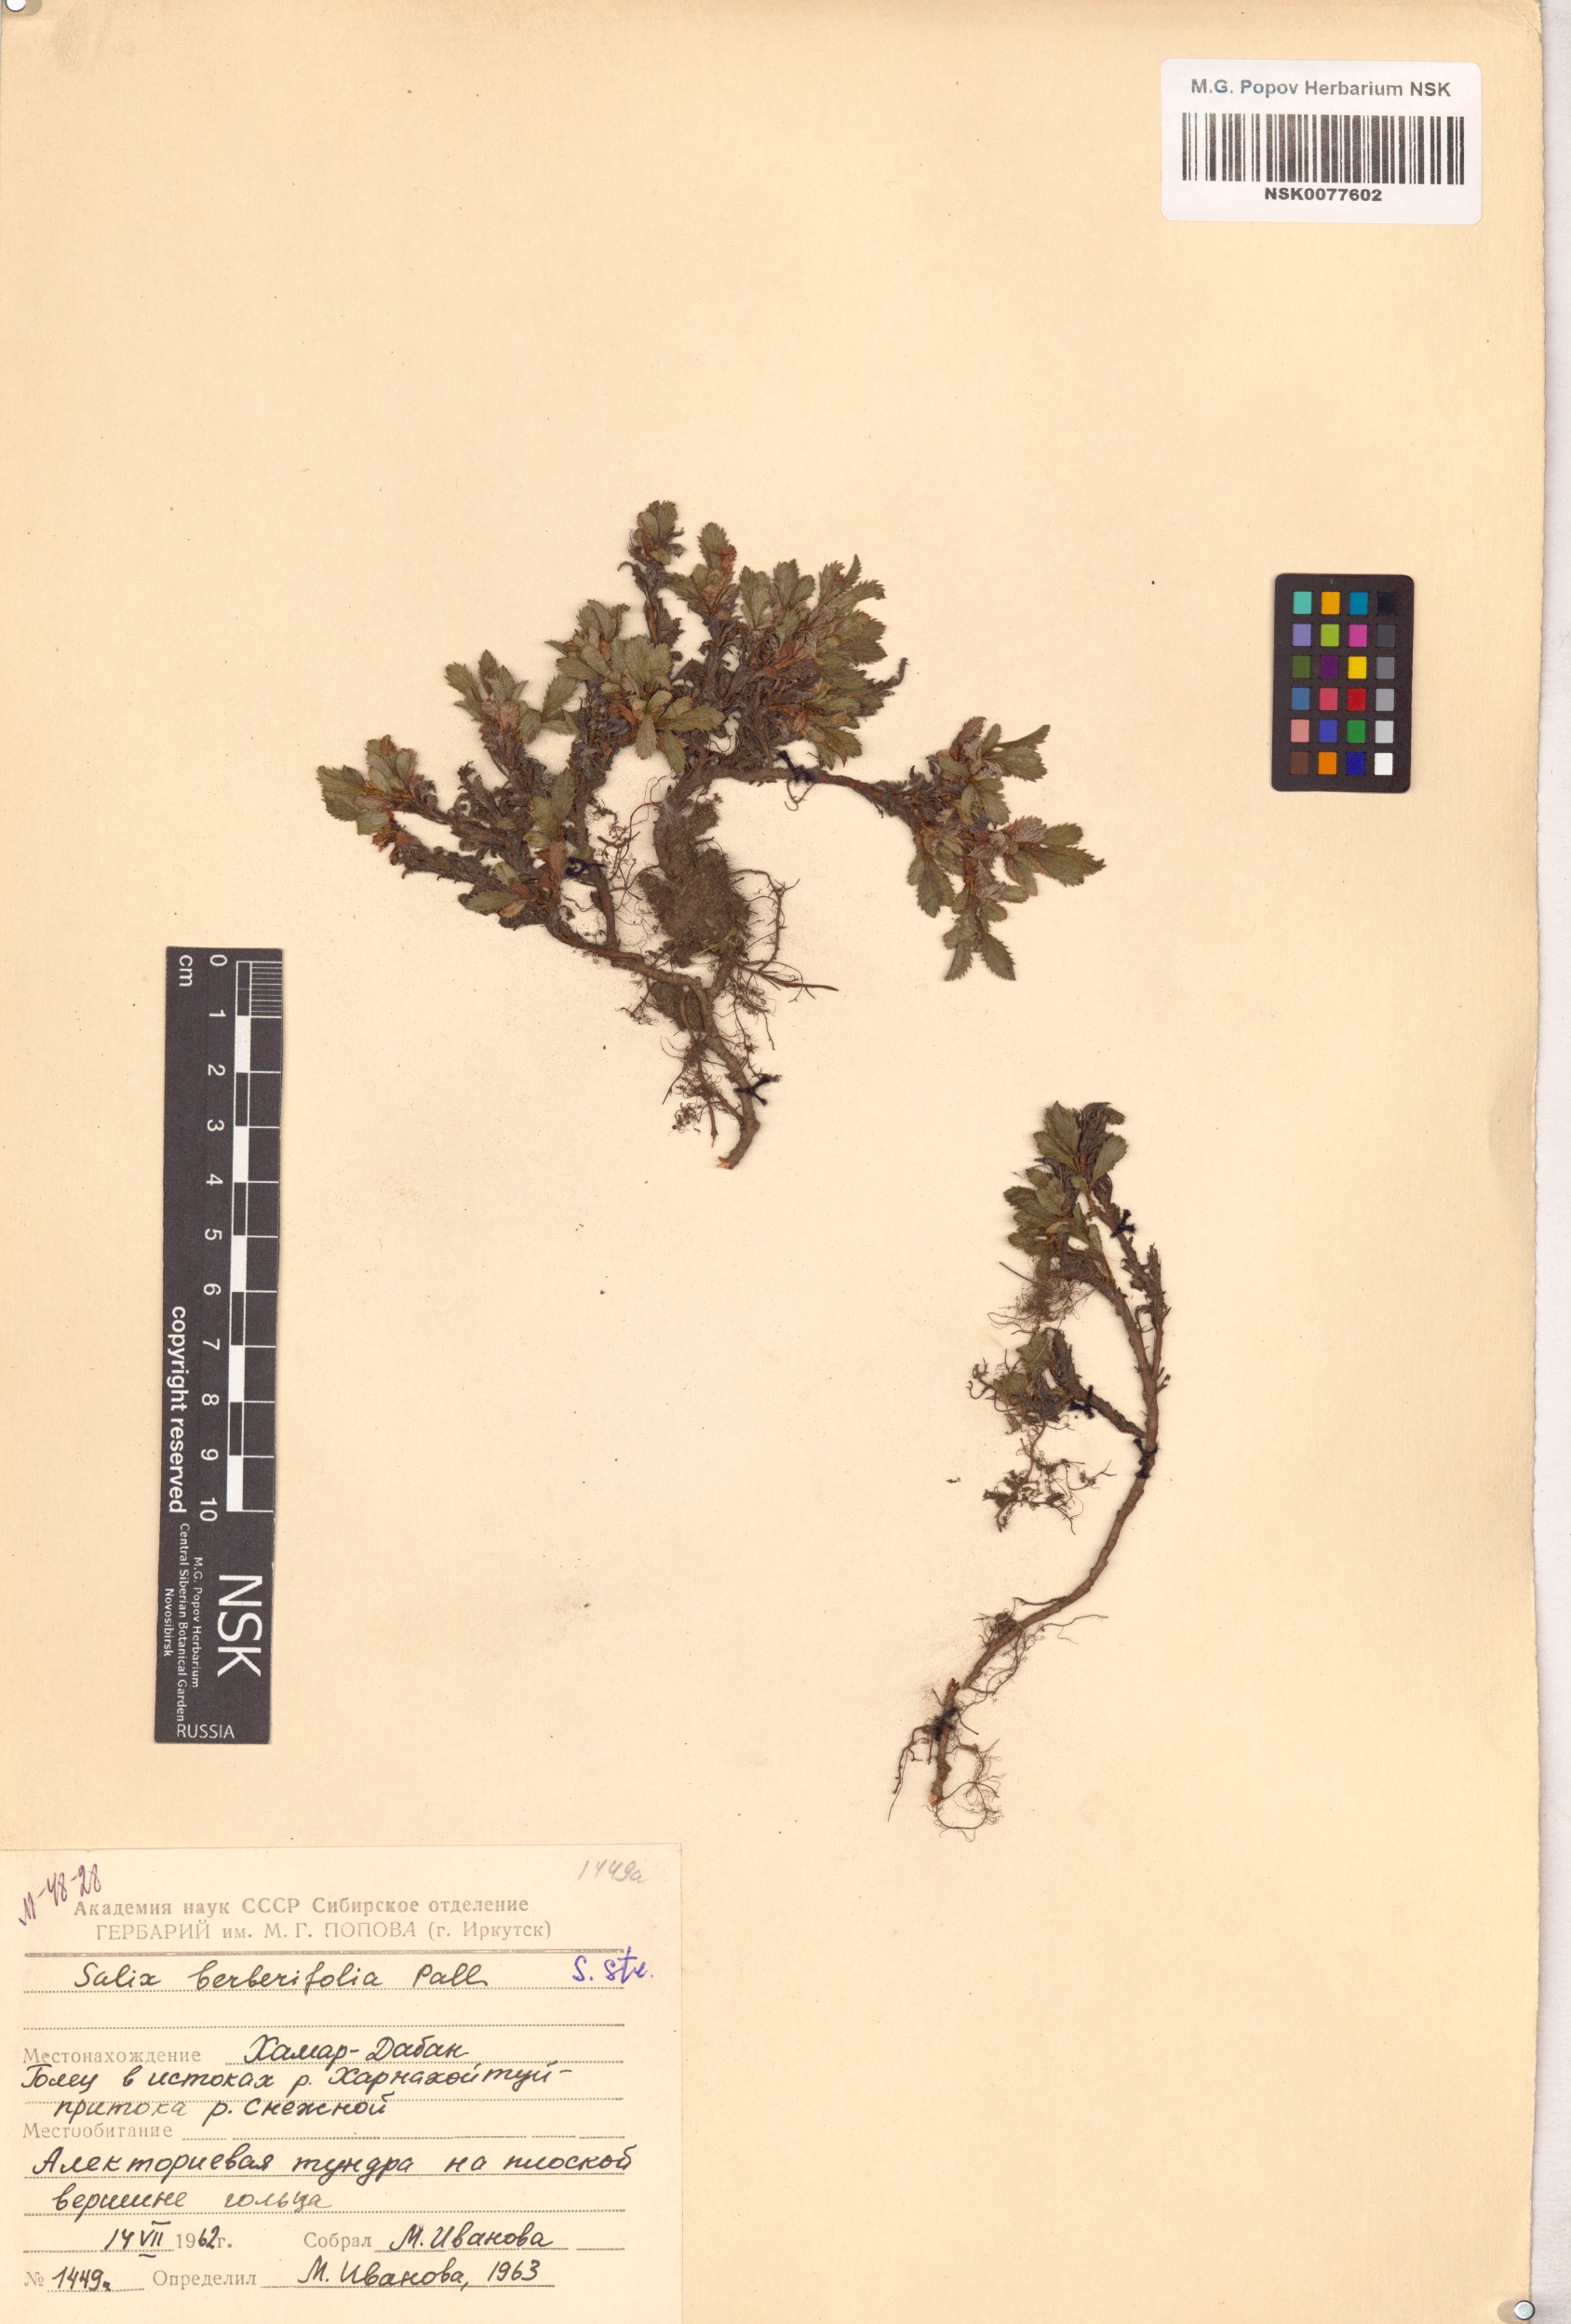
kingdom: Plantae
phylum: Tracheophyta
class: Magnoliopsida
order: Malpighiales
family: Salicaceae
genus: Salix
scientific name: Salix berberifolia
